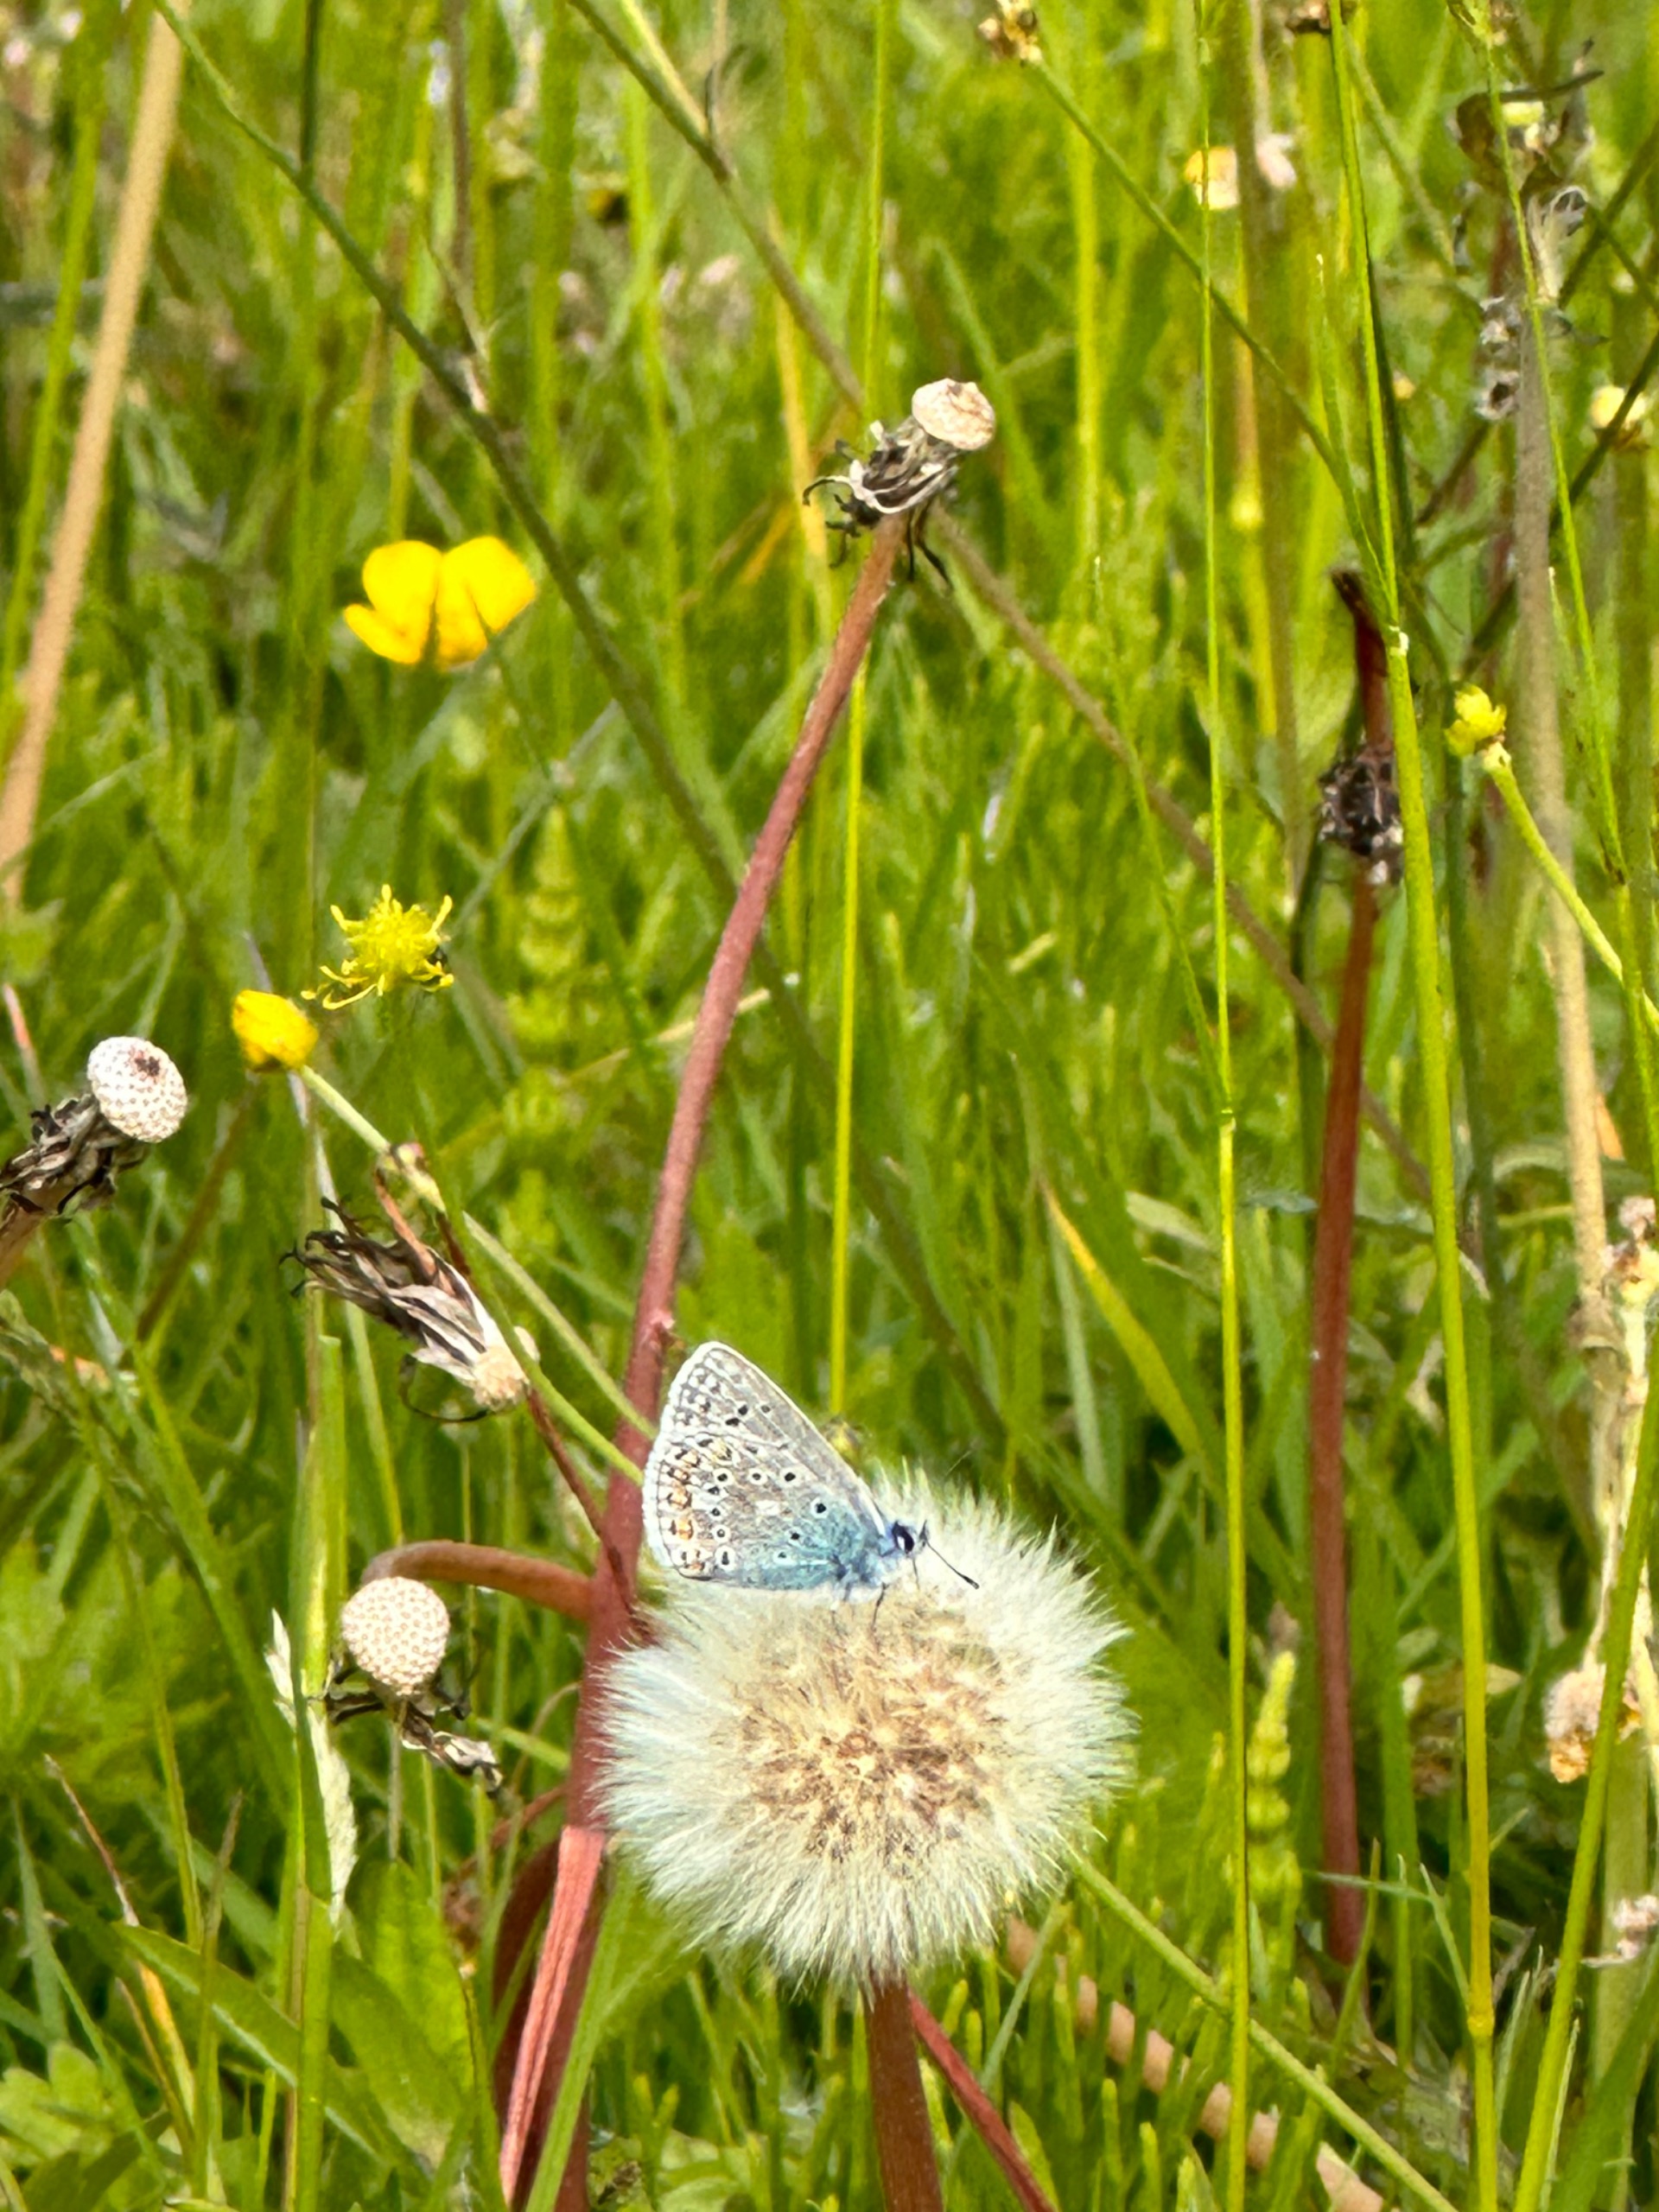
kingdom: Animalia
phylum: Arthropoda
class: Insecta
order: Lepidoptera
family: Lycaenidae
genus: Polyommatus
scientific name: Polyommatus icarus
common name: Almindelig blåfugl
